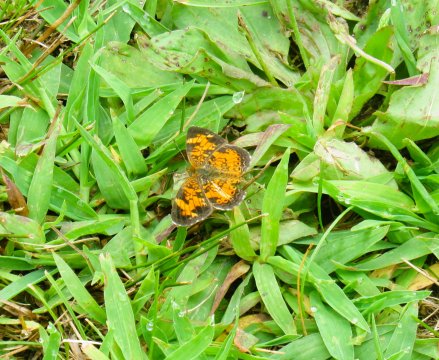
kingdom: Animalia
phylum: Arthropoda
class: Insecta
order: Lepidoptera
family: Nymphalidae
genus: Phyciodes
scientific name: Phyciodes tharos
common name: Pearl Crescent
